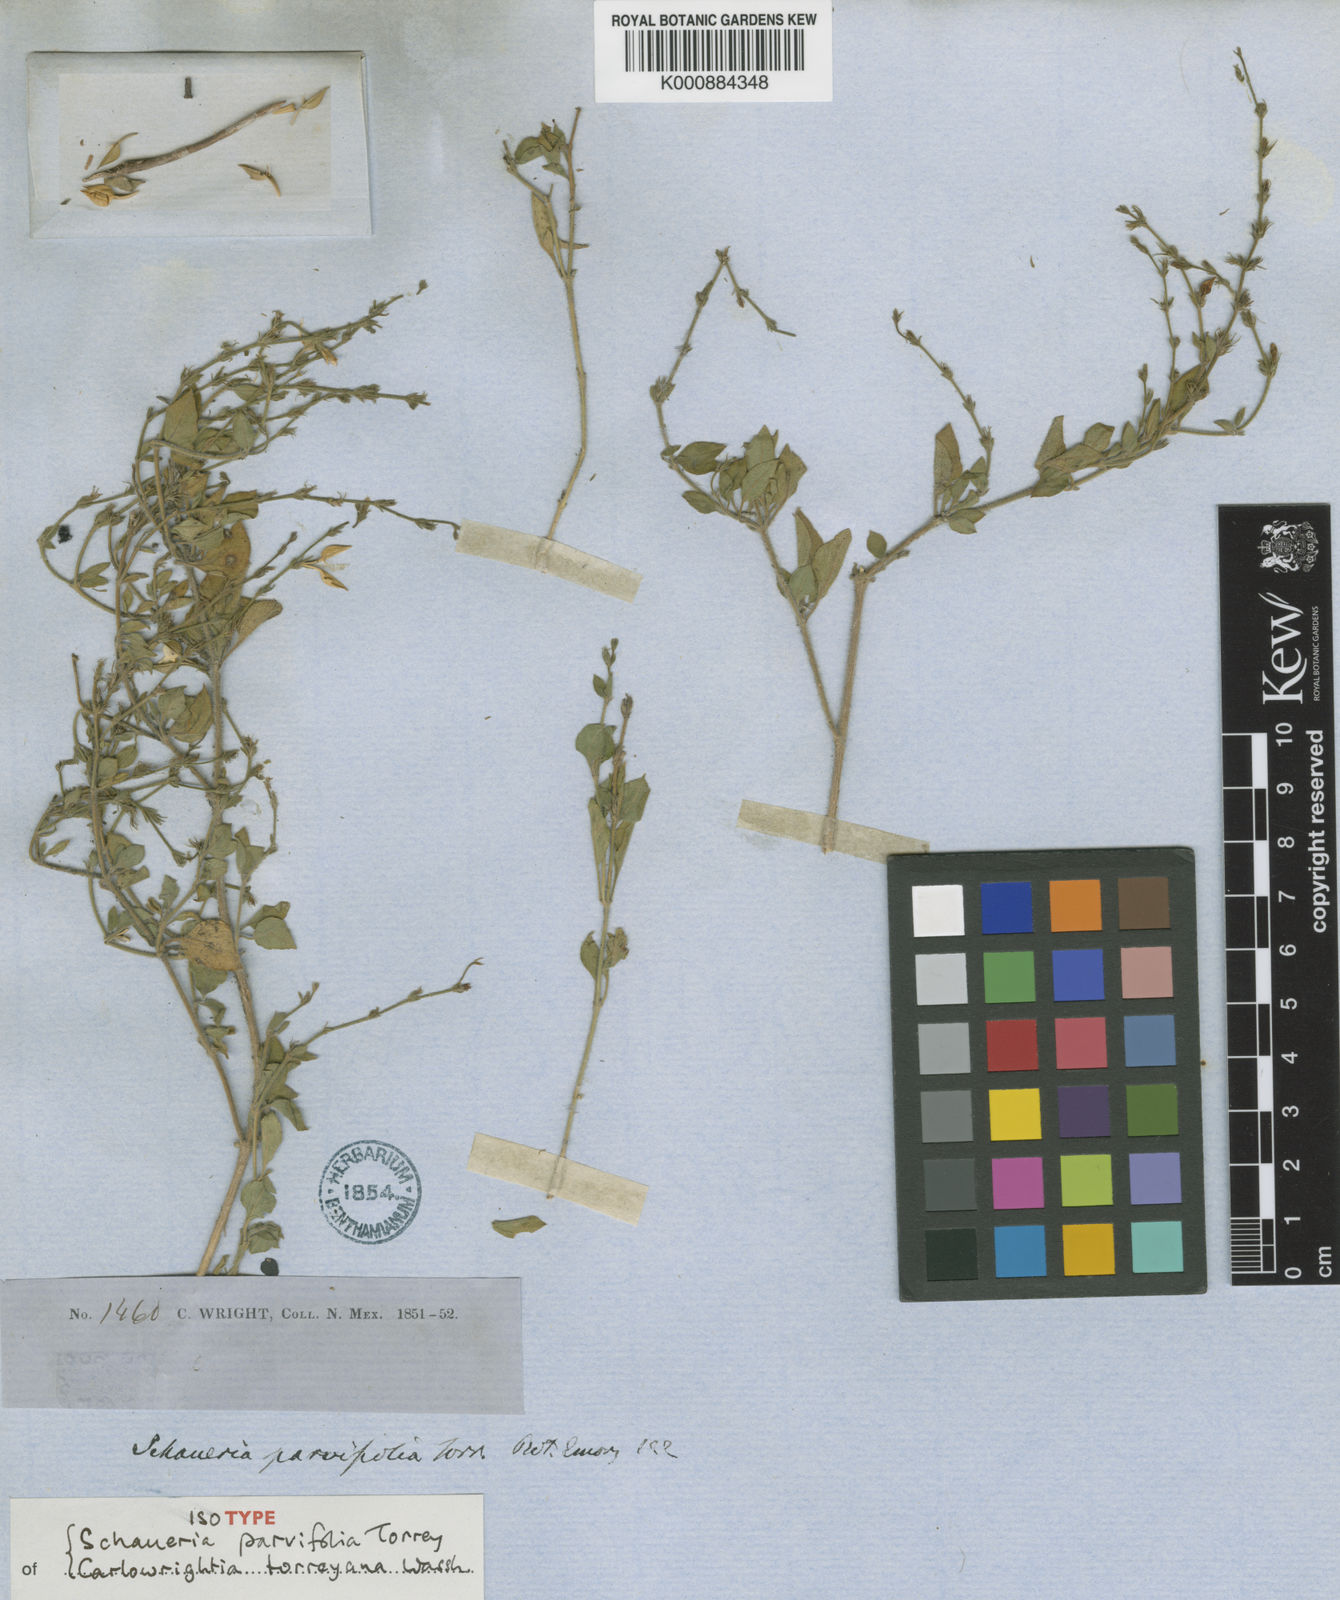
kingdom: Plantae
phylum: Tracheophyta
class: Magnoliopsida
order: Lamiales
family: Acanthaceae
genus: Carlowrightia
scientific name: Carlowrightia torreyana
